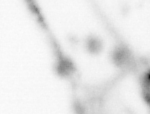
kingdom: Animalia
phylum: Chaetognatha
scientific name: Chaetognatha
